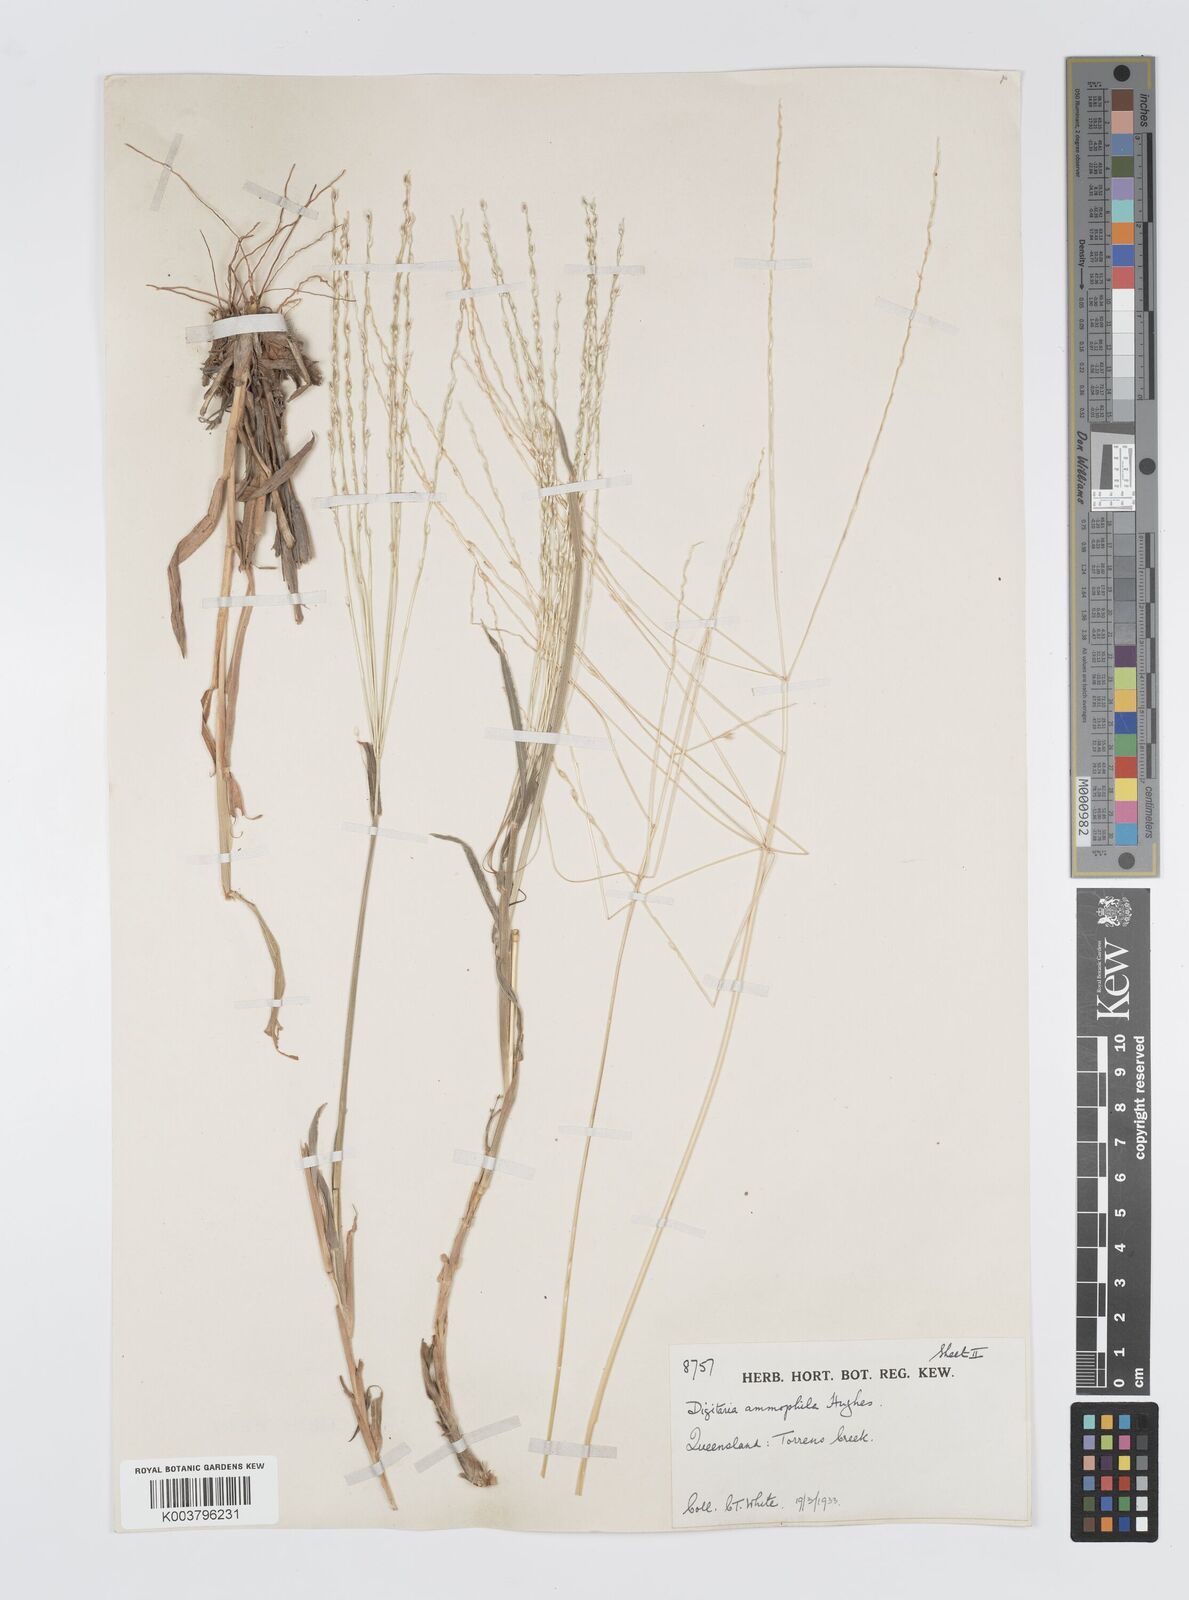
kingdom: Plantae
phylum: Tracheophyta
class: Liliopsida
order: Poales
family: Poaceae
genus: Digitaria
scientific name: Digitaria ammophila
